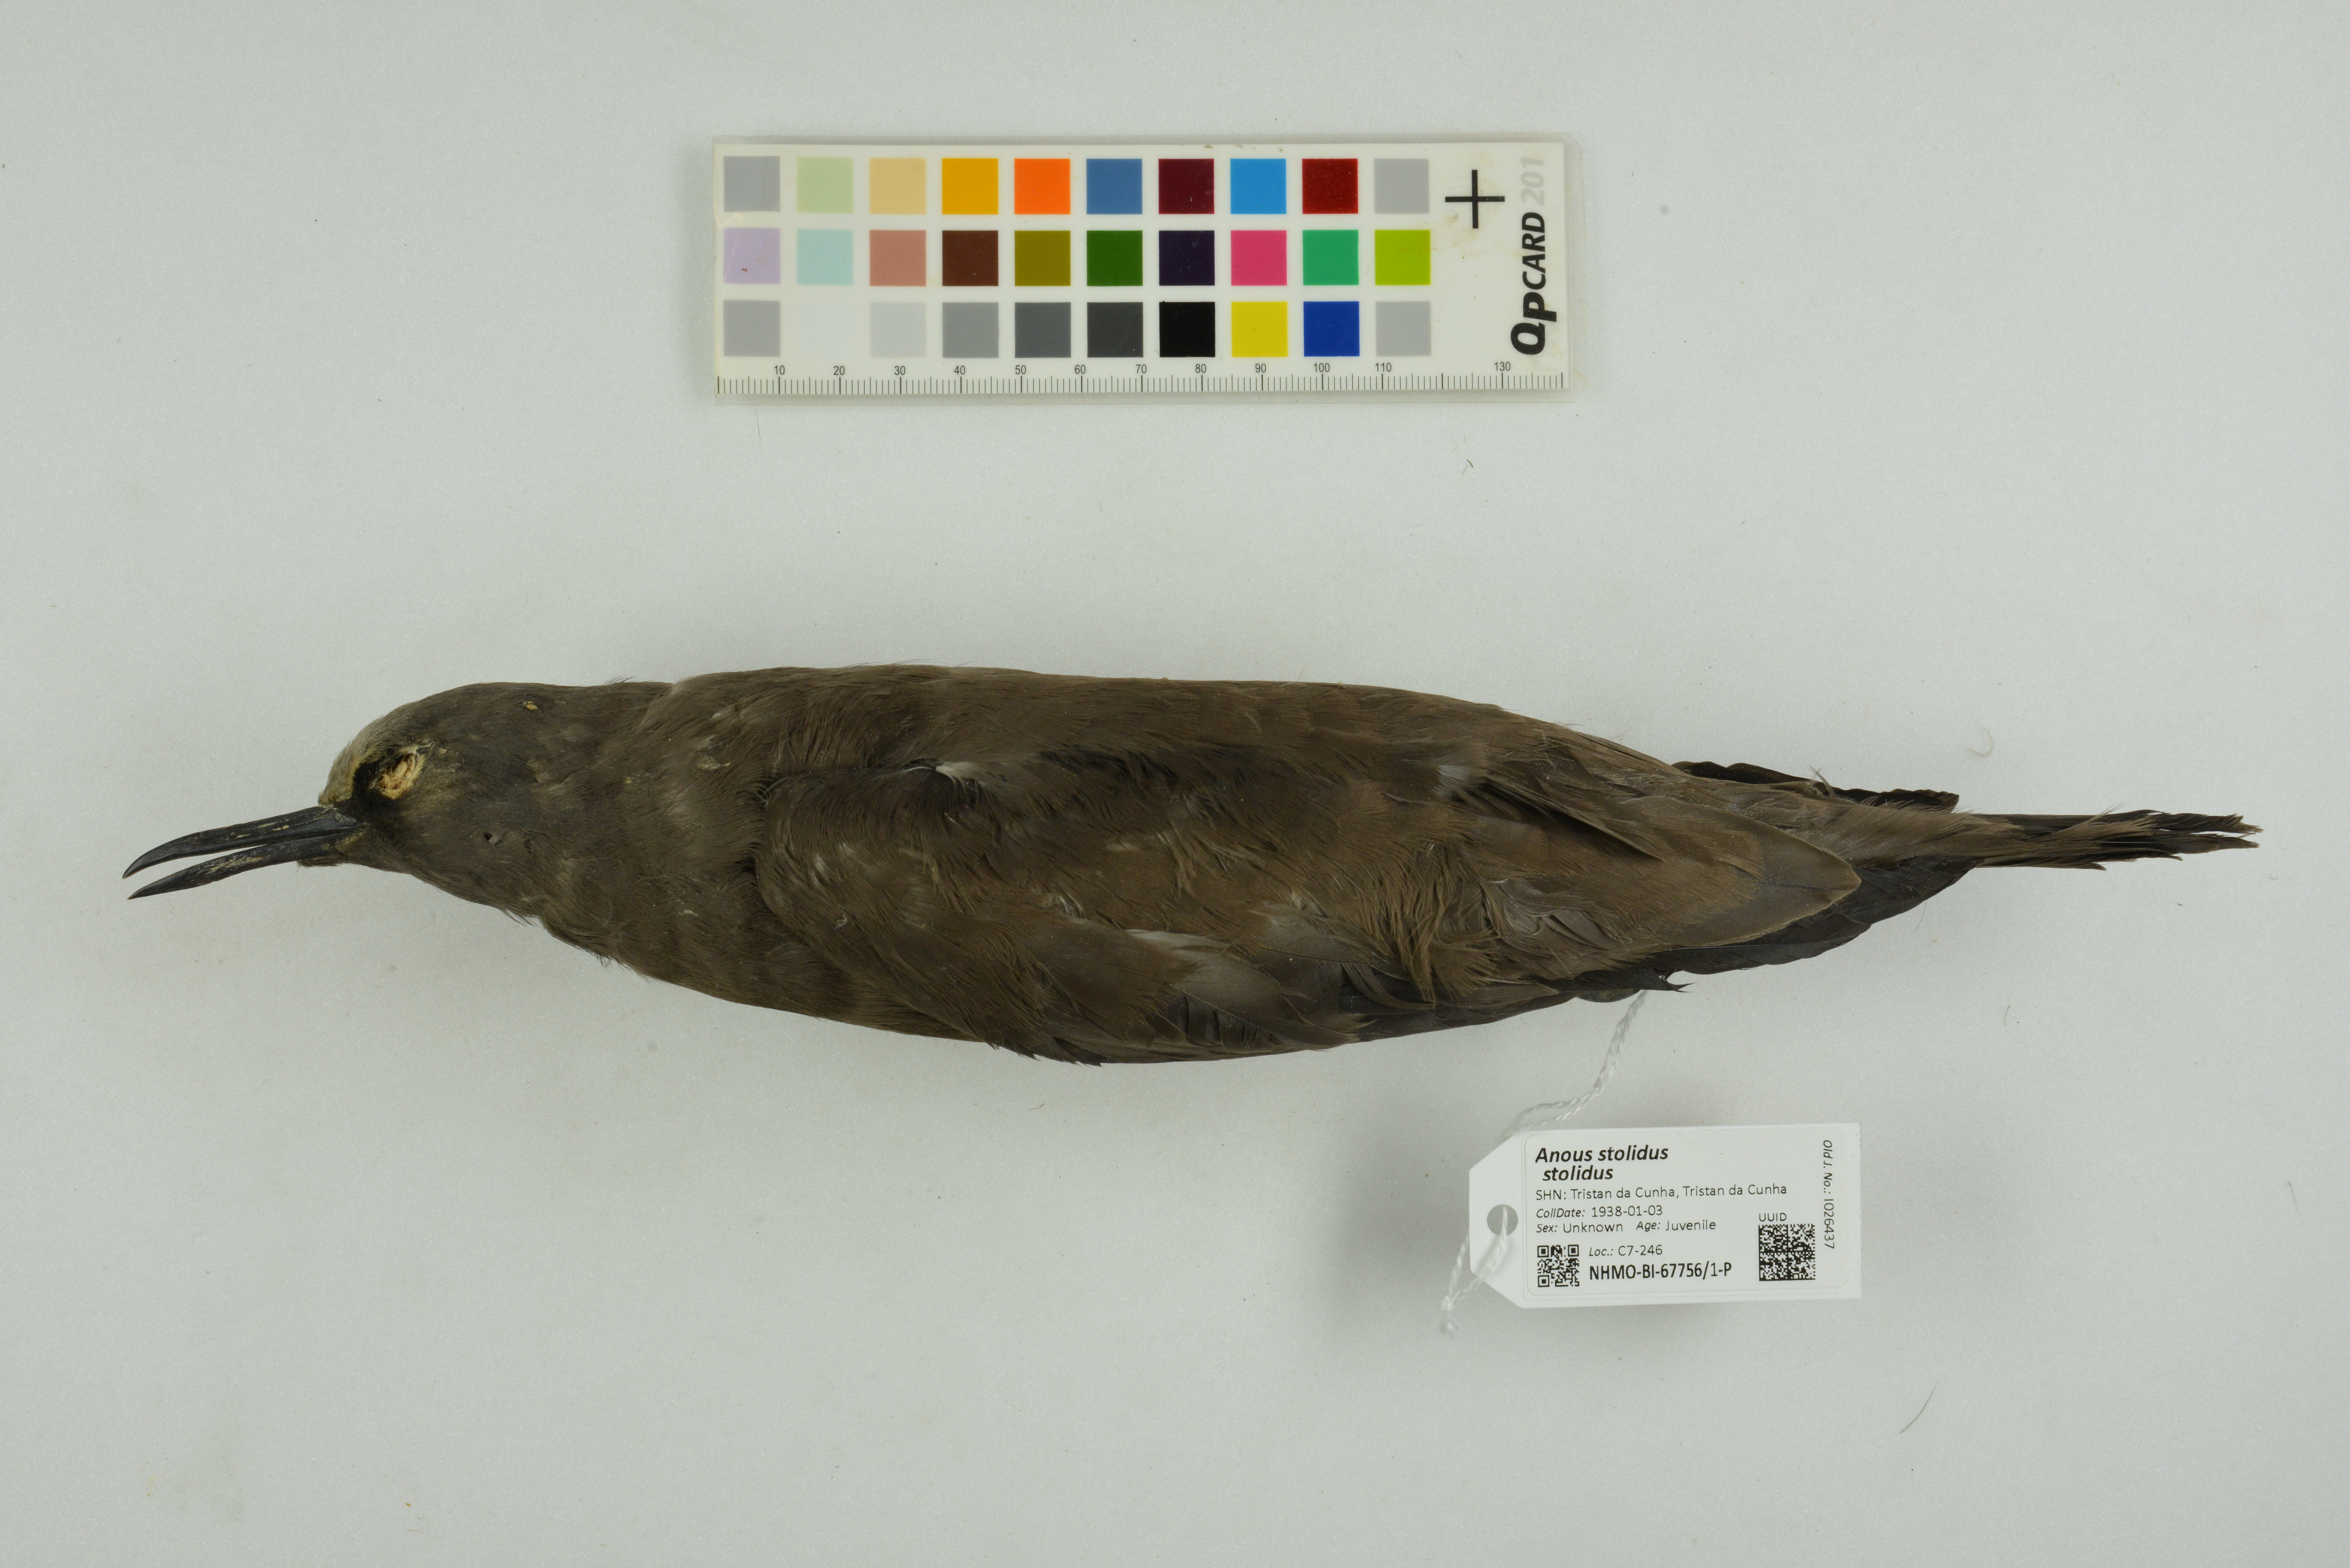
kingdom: Animalia
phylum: Chordata
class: Aves
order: Charadriiformes
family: Laridae
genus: Anous
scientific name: Anous stolidus
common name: Brown noddy
